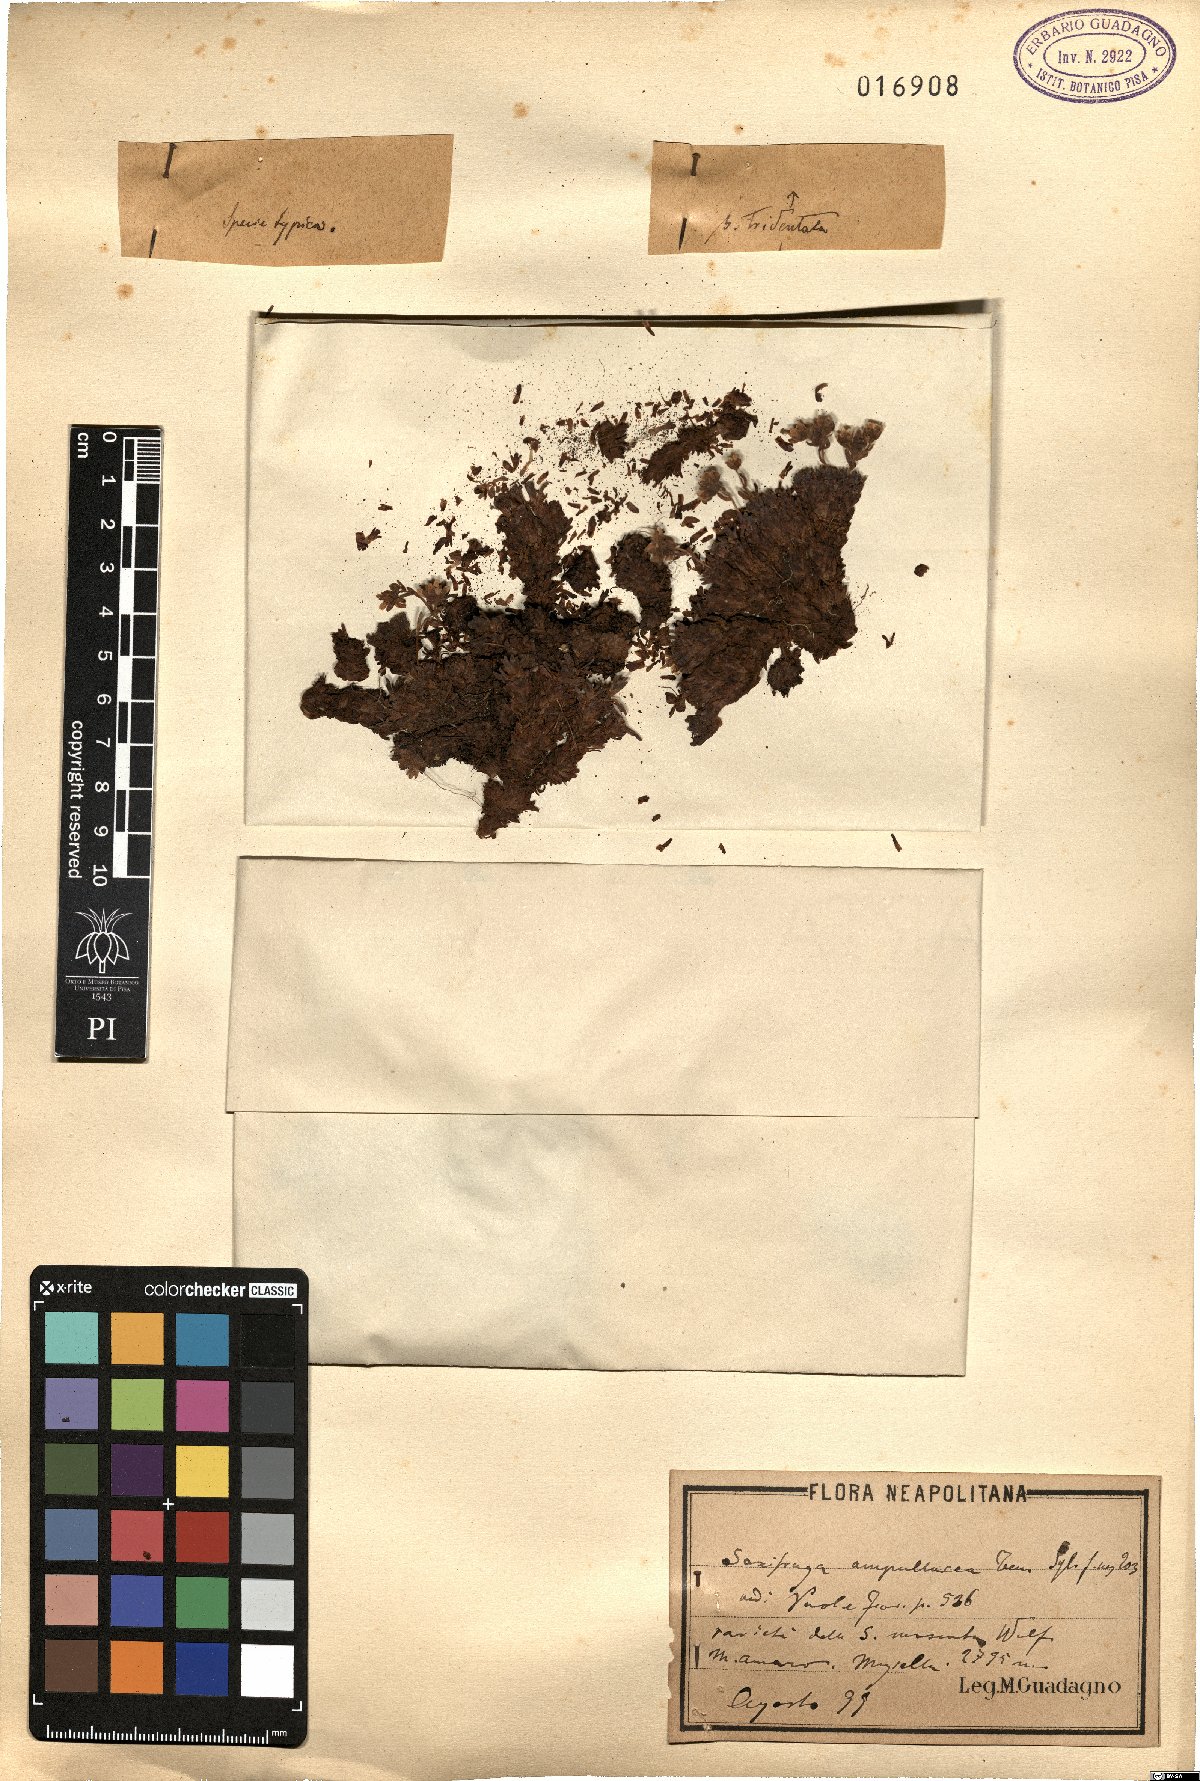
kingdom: Plantae
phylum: Tracheophyta
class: Magnoliopsida
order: Saxifragales
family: Saxifragaceae
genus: Saxifraga
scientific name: Saxifraga exarata
